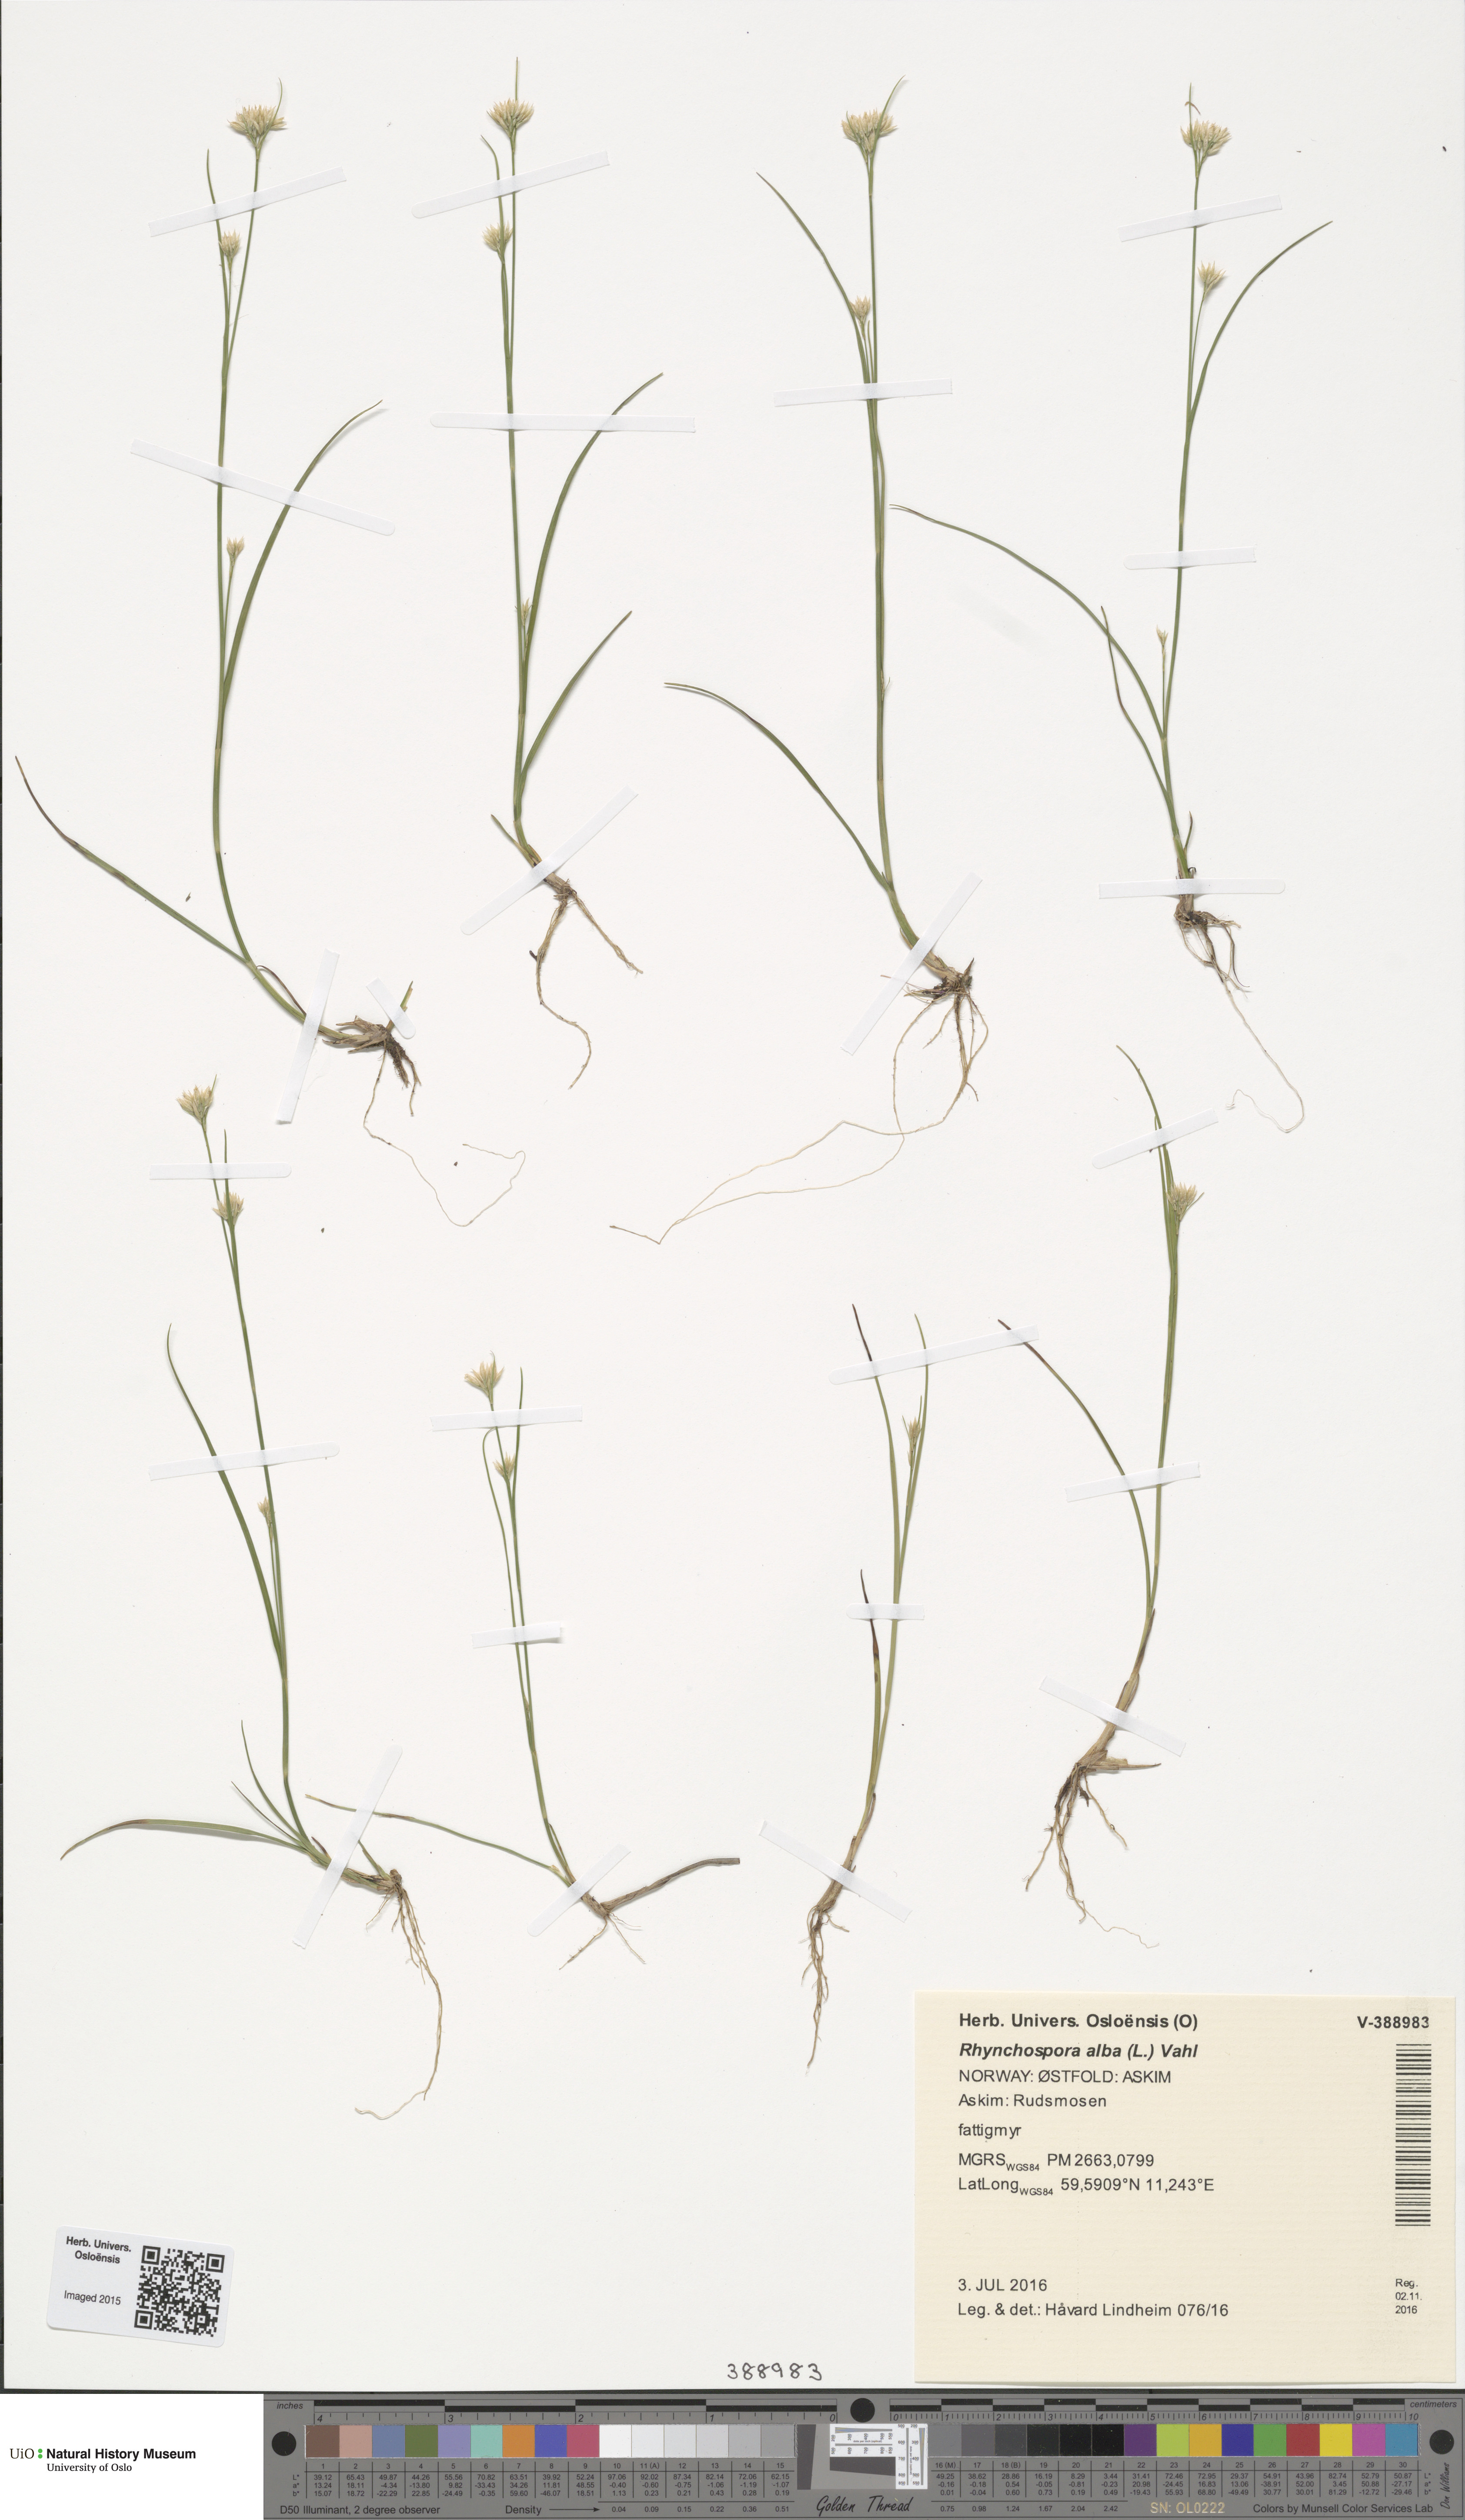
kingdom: Plantae
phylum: Tracheophyta
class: Liliopsida
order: Poales
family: Cyperaceae
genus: Rhynchospora
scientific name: Rhynchospora alba
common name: White beak-sedge
